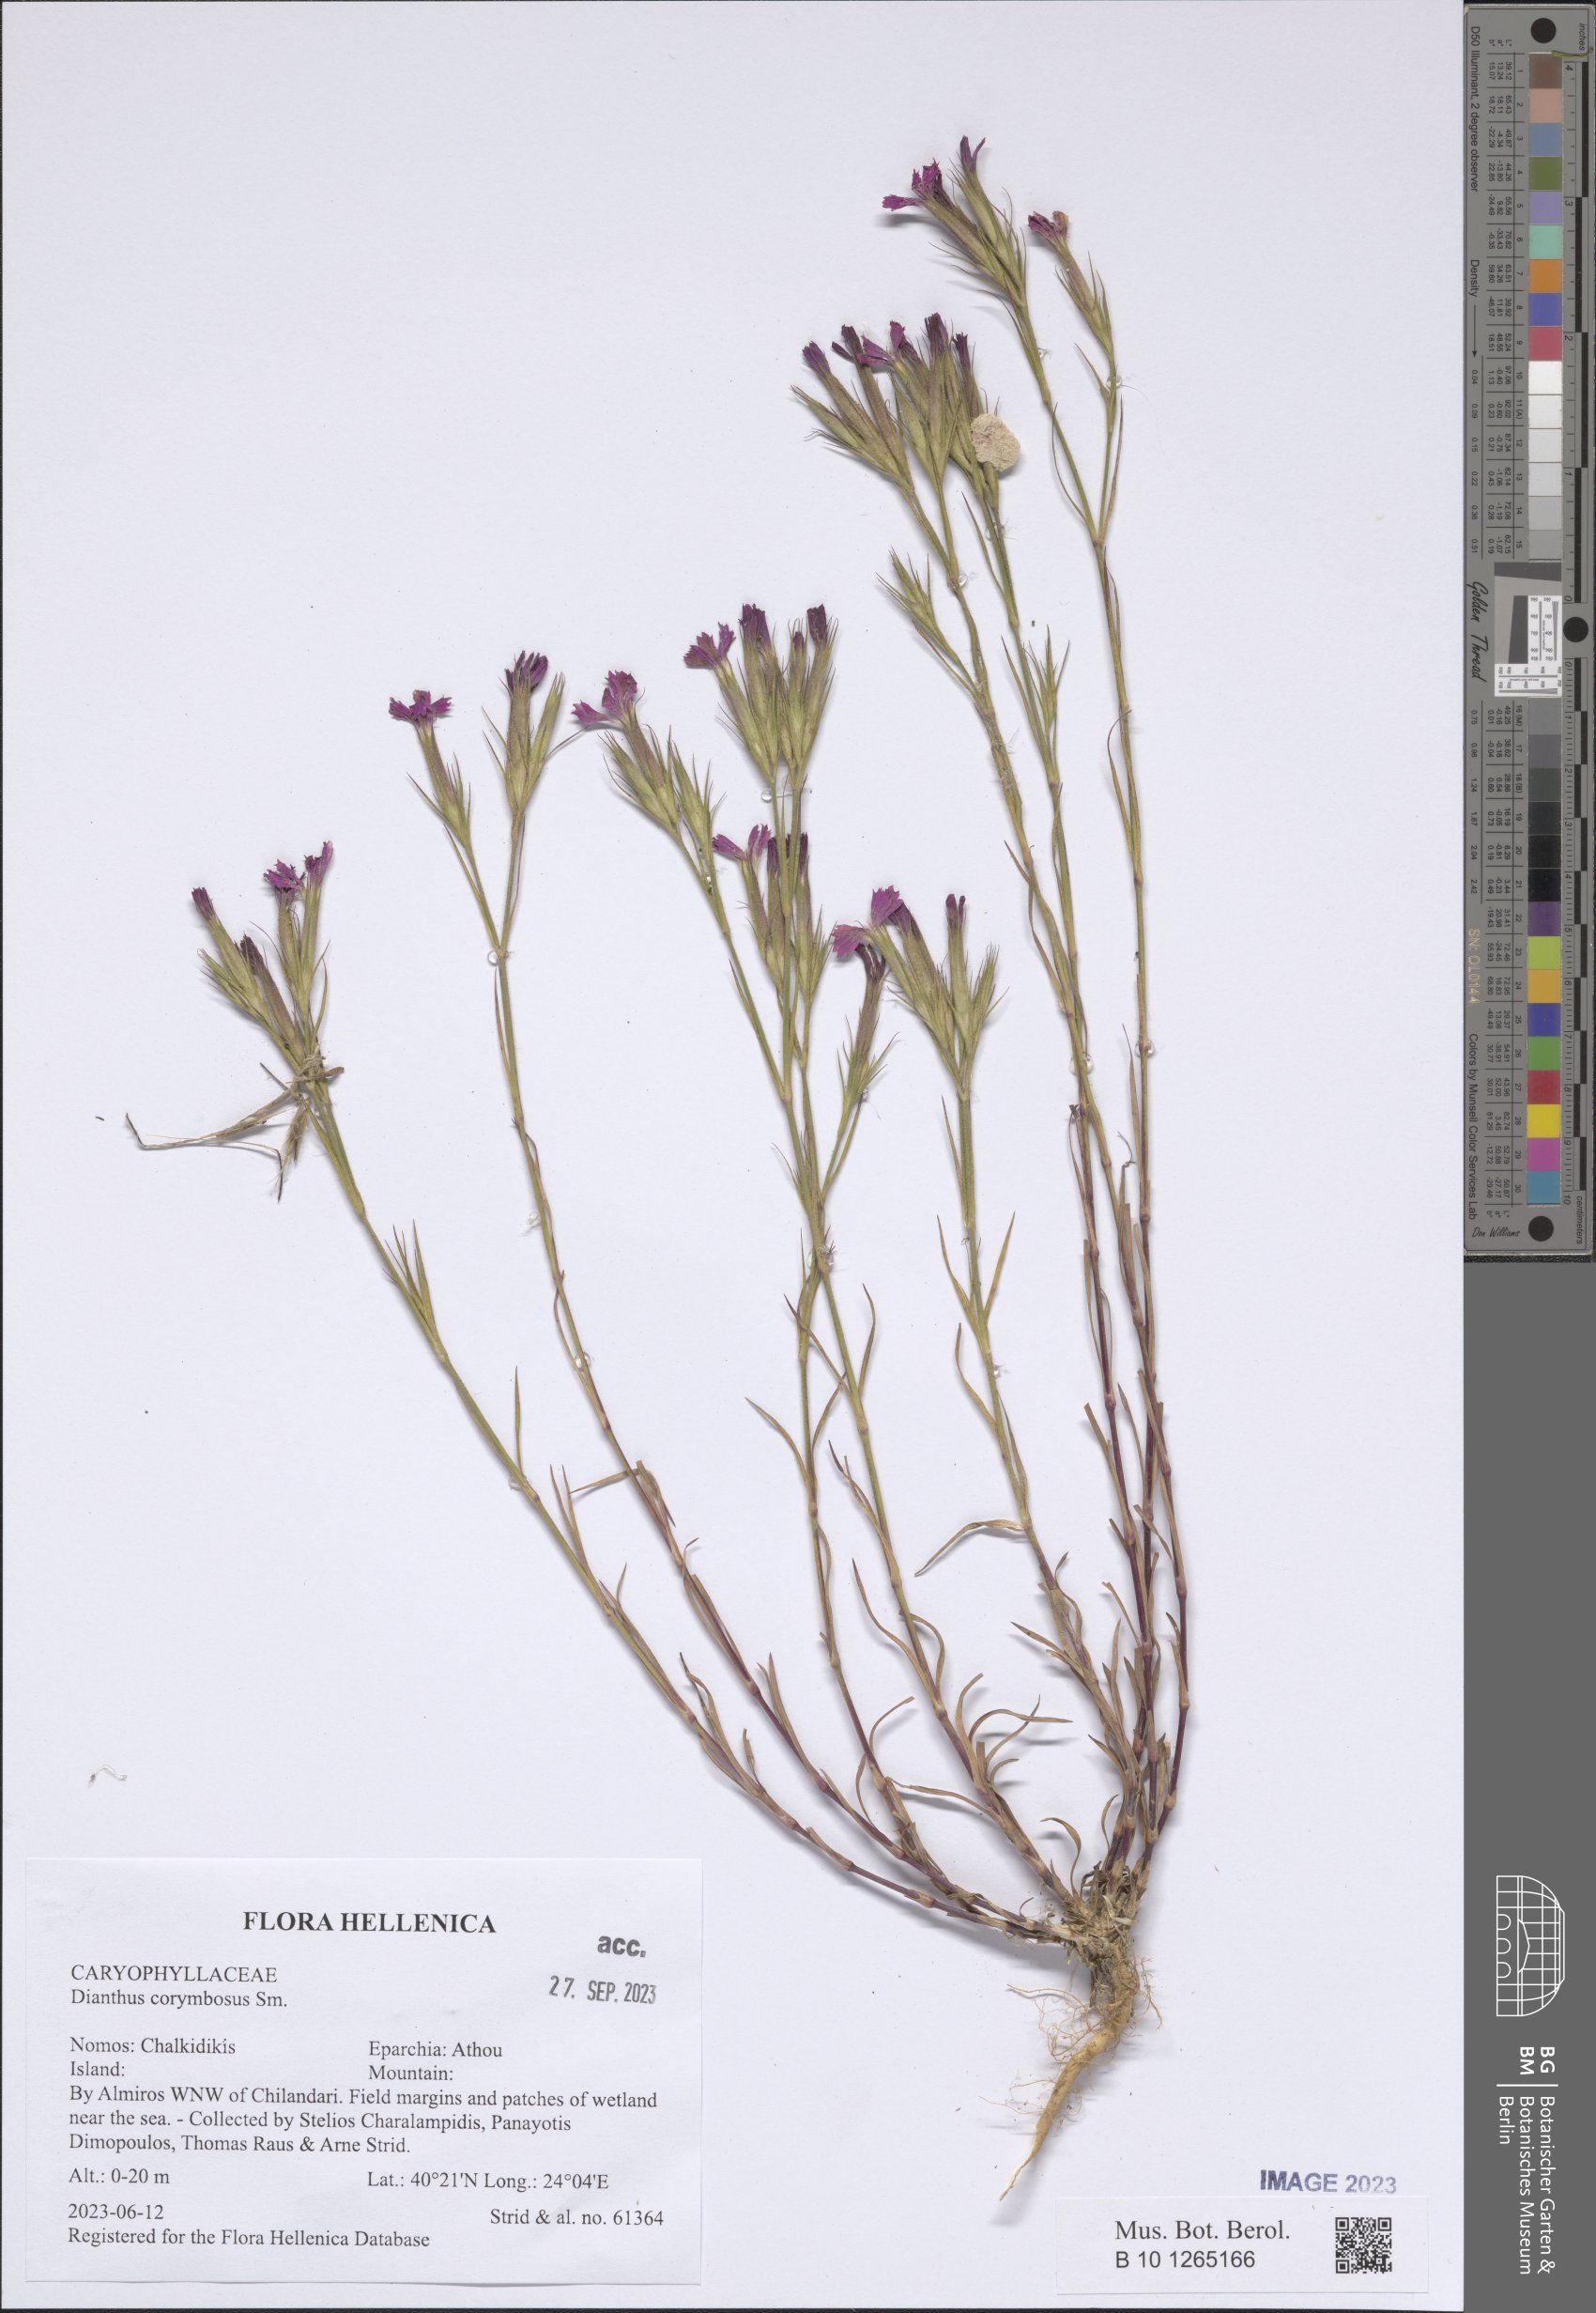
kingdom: Plantae
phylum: Tracheophyta
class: Magnoliopsida
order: Caryophyllales
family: Caryophyllaceae
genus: Dianthus
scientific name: Dianthus corymbosus
